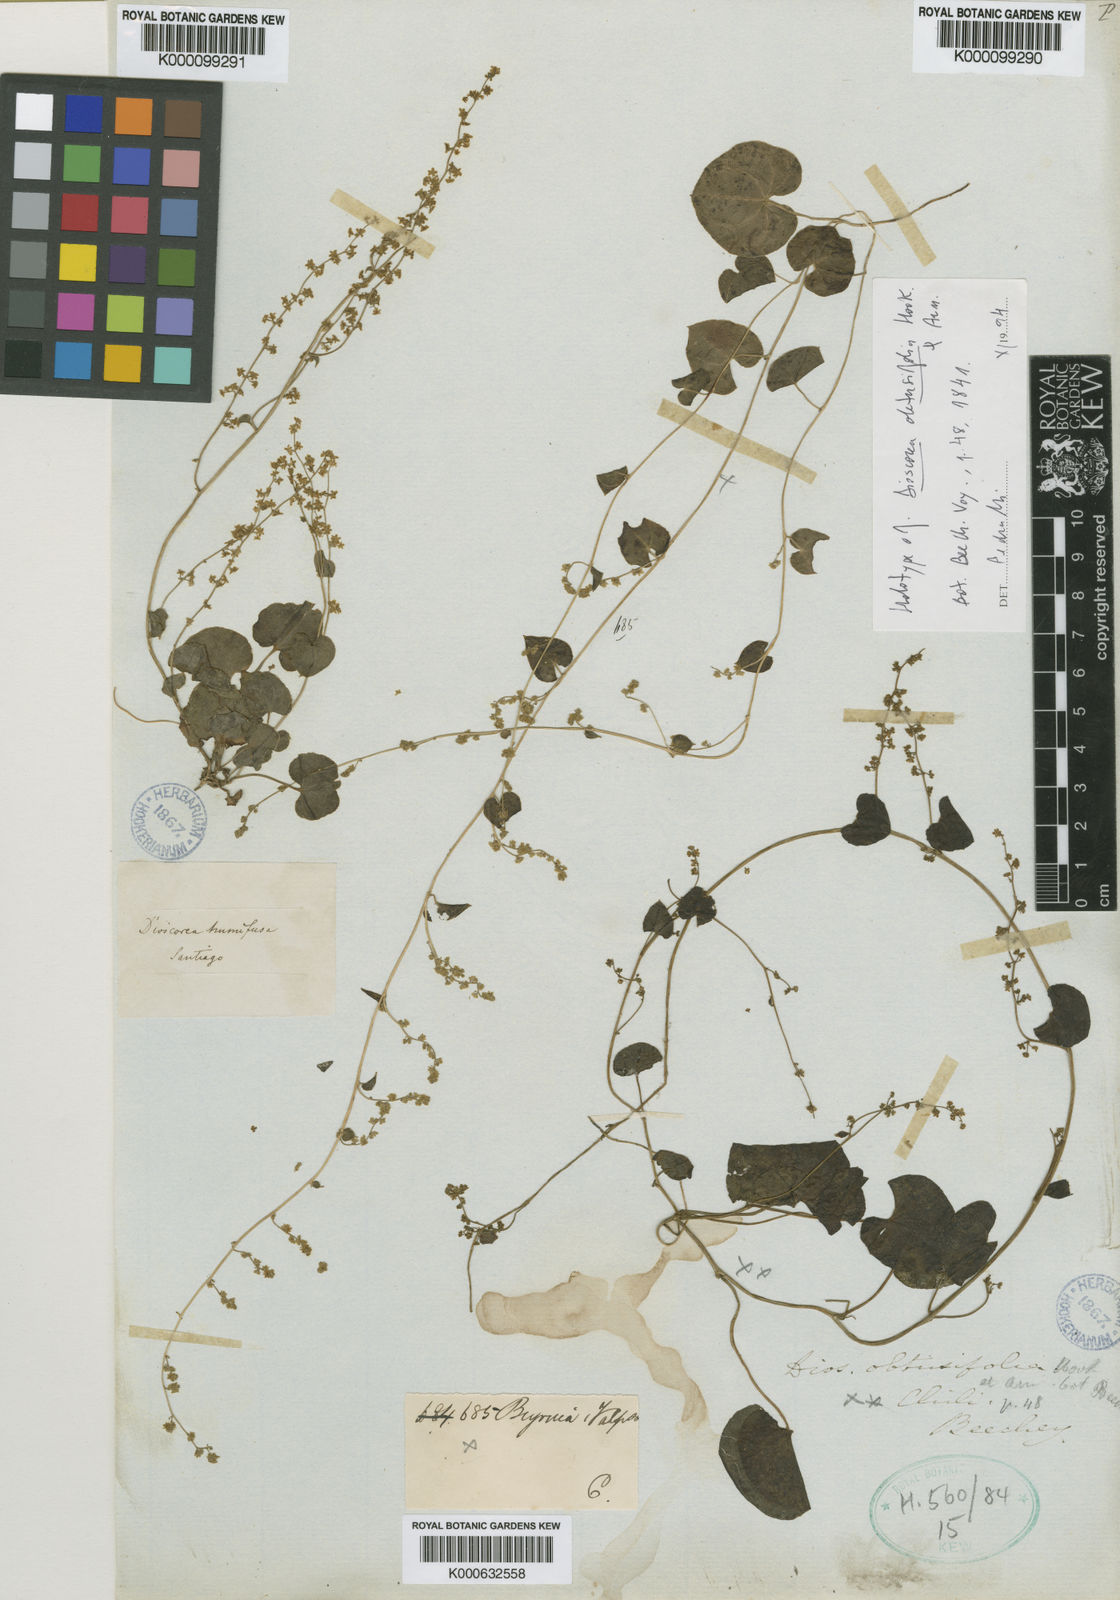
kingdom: Plantae
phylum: Tracheophyta
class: Liliopsida
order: Dioscoreales
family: Dioscoreaceae
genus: Dioscorea
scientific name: Dioscorea obtusifolia
